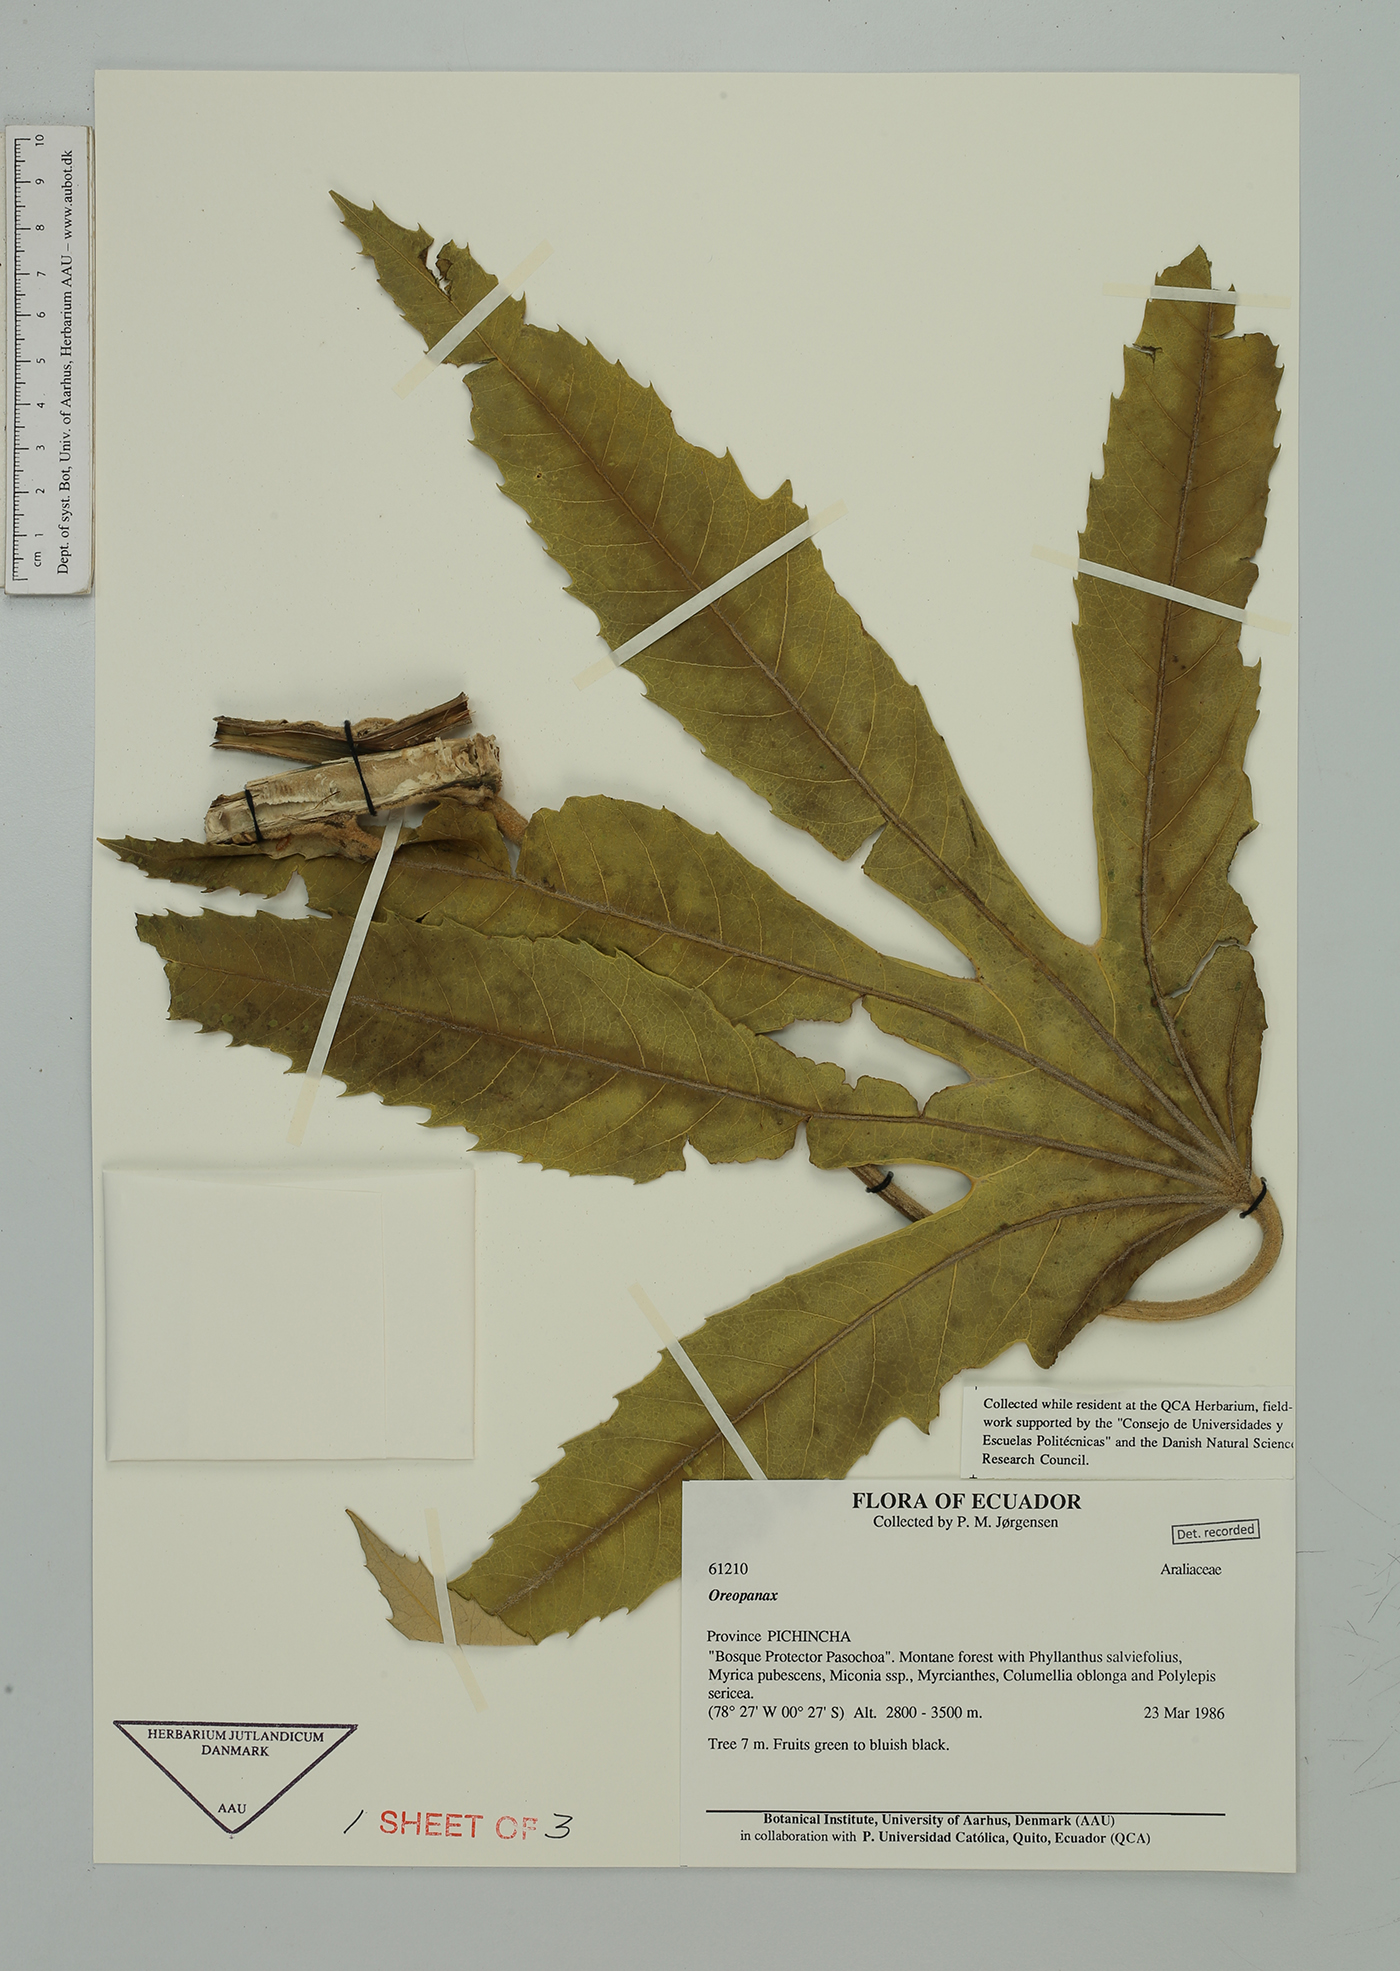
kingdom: Plantae
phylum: Tracheophyta
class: Magnoliopsida
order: Apiales
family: Araliaceae
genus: Oreopanax
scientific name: Oreopanax
